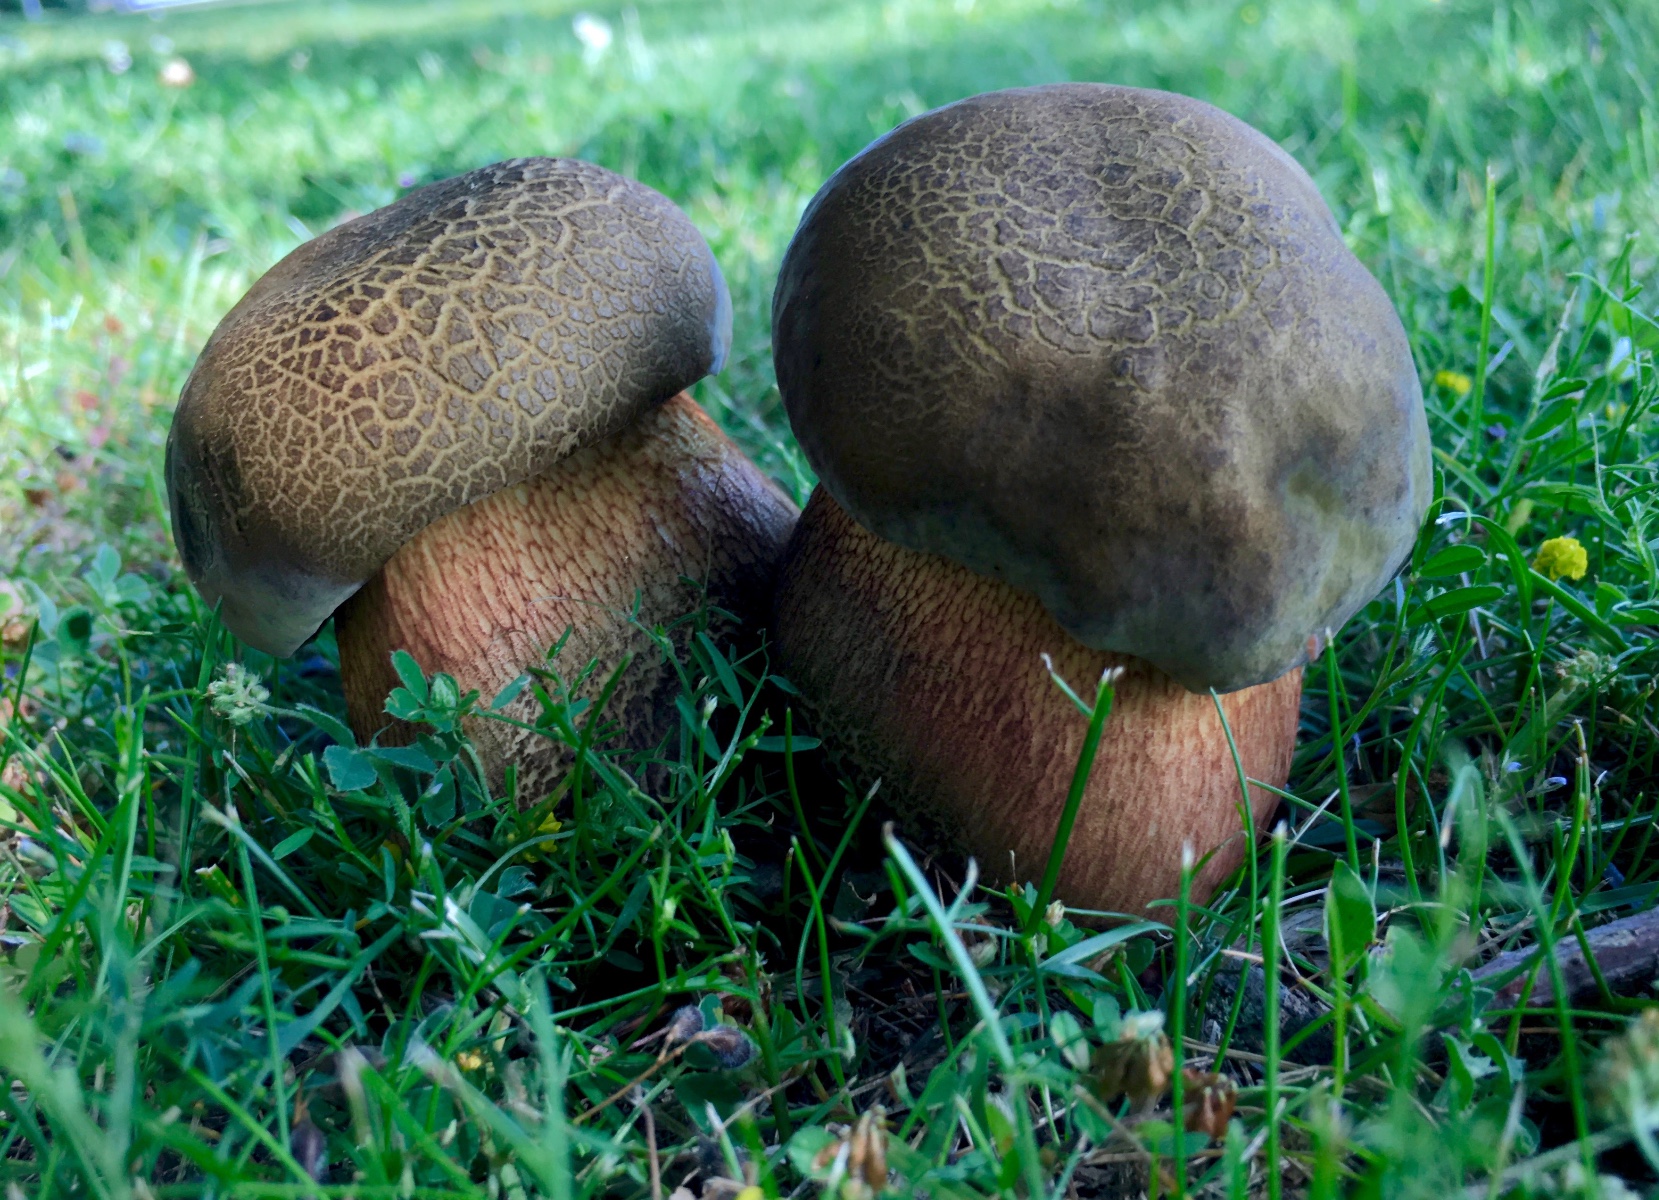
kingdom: Fungi
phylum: Basidiomycota
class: Agaricomycetes
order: Boletales
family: Boletaceae
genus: Suillellus
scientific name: Suillellus luridus
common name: netstokket indigorørhat
